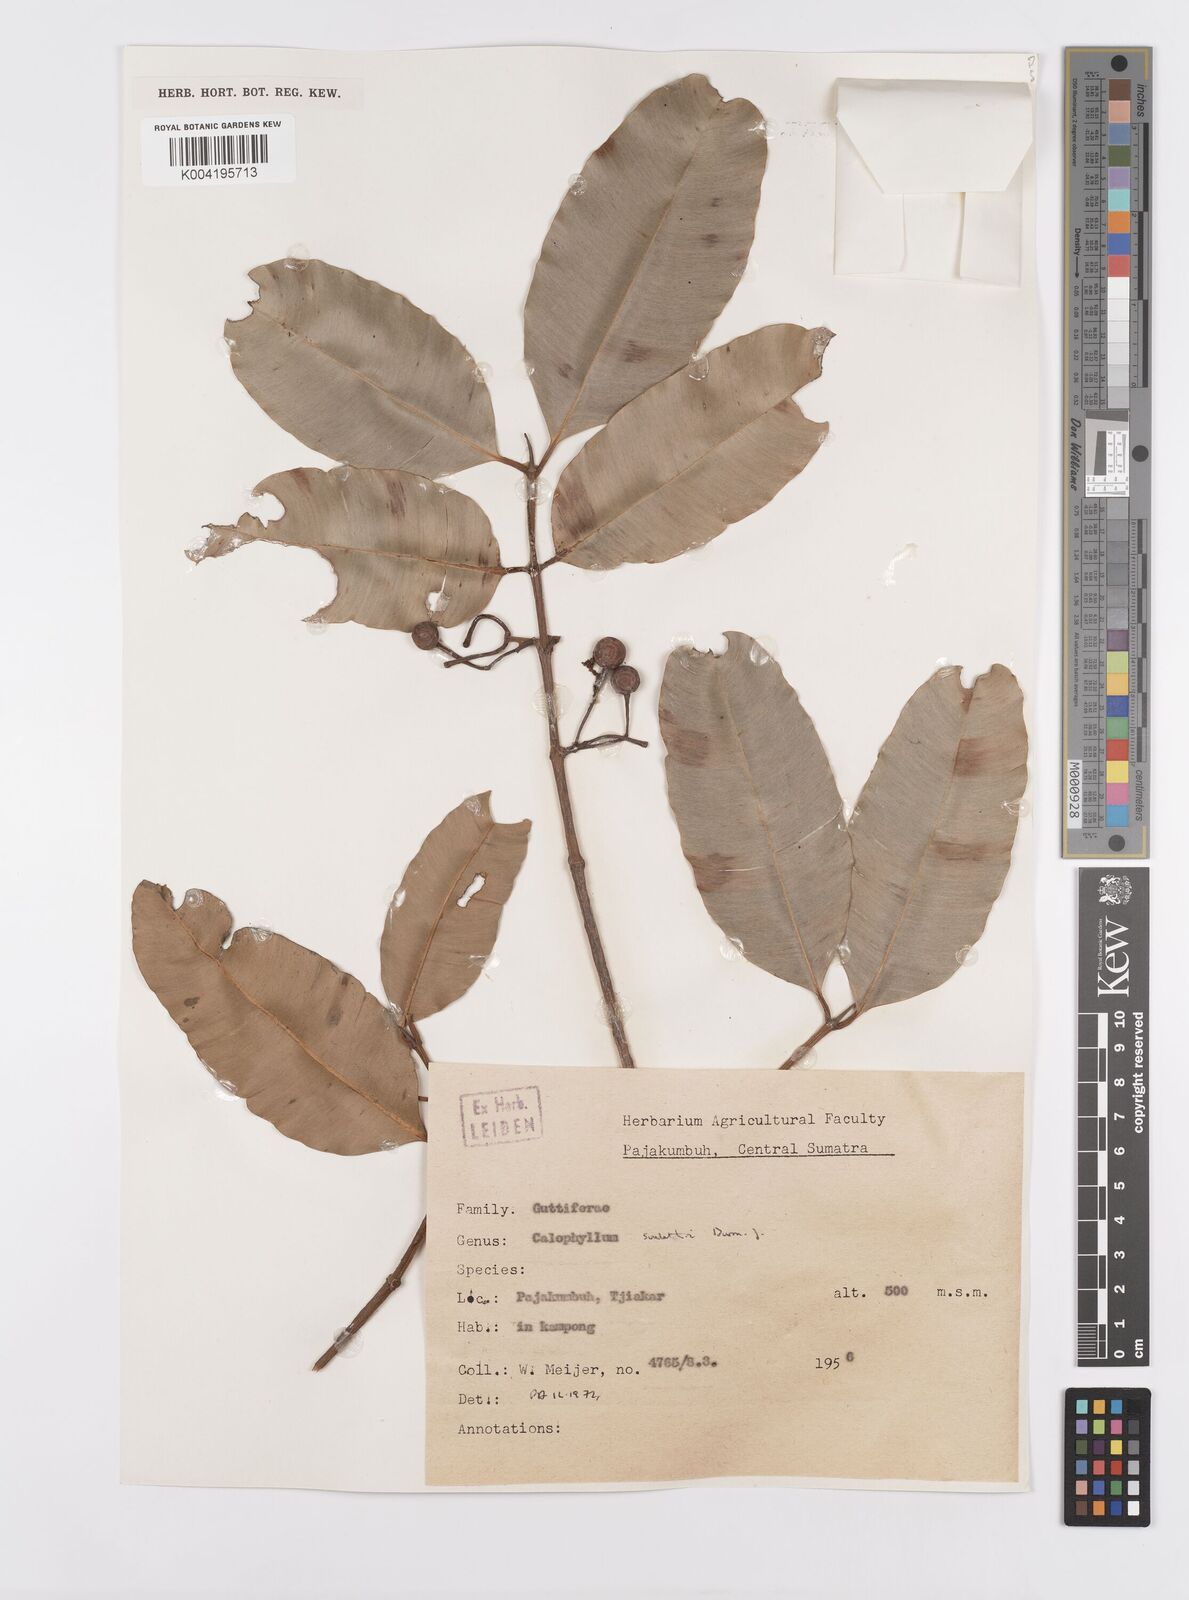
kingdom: Plantae
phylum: Tracheophyta
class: Magnoliopsida
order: Malpighiales
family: Calophyllaceae
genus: Calophyllum
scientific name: Calophyllum soulattri
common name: Bitangoor boonot
